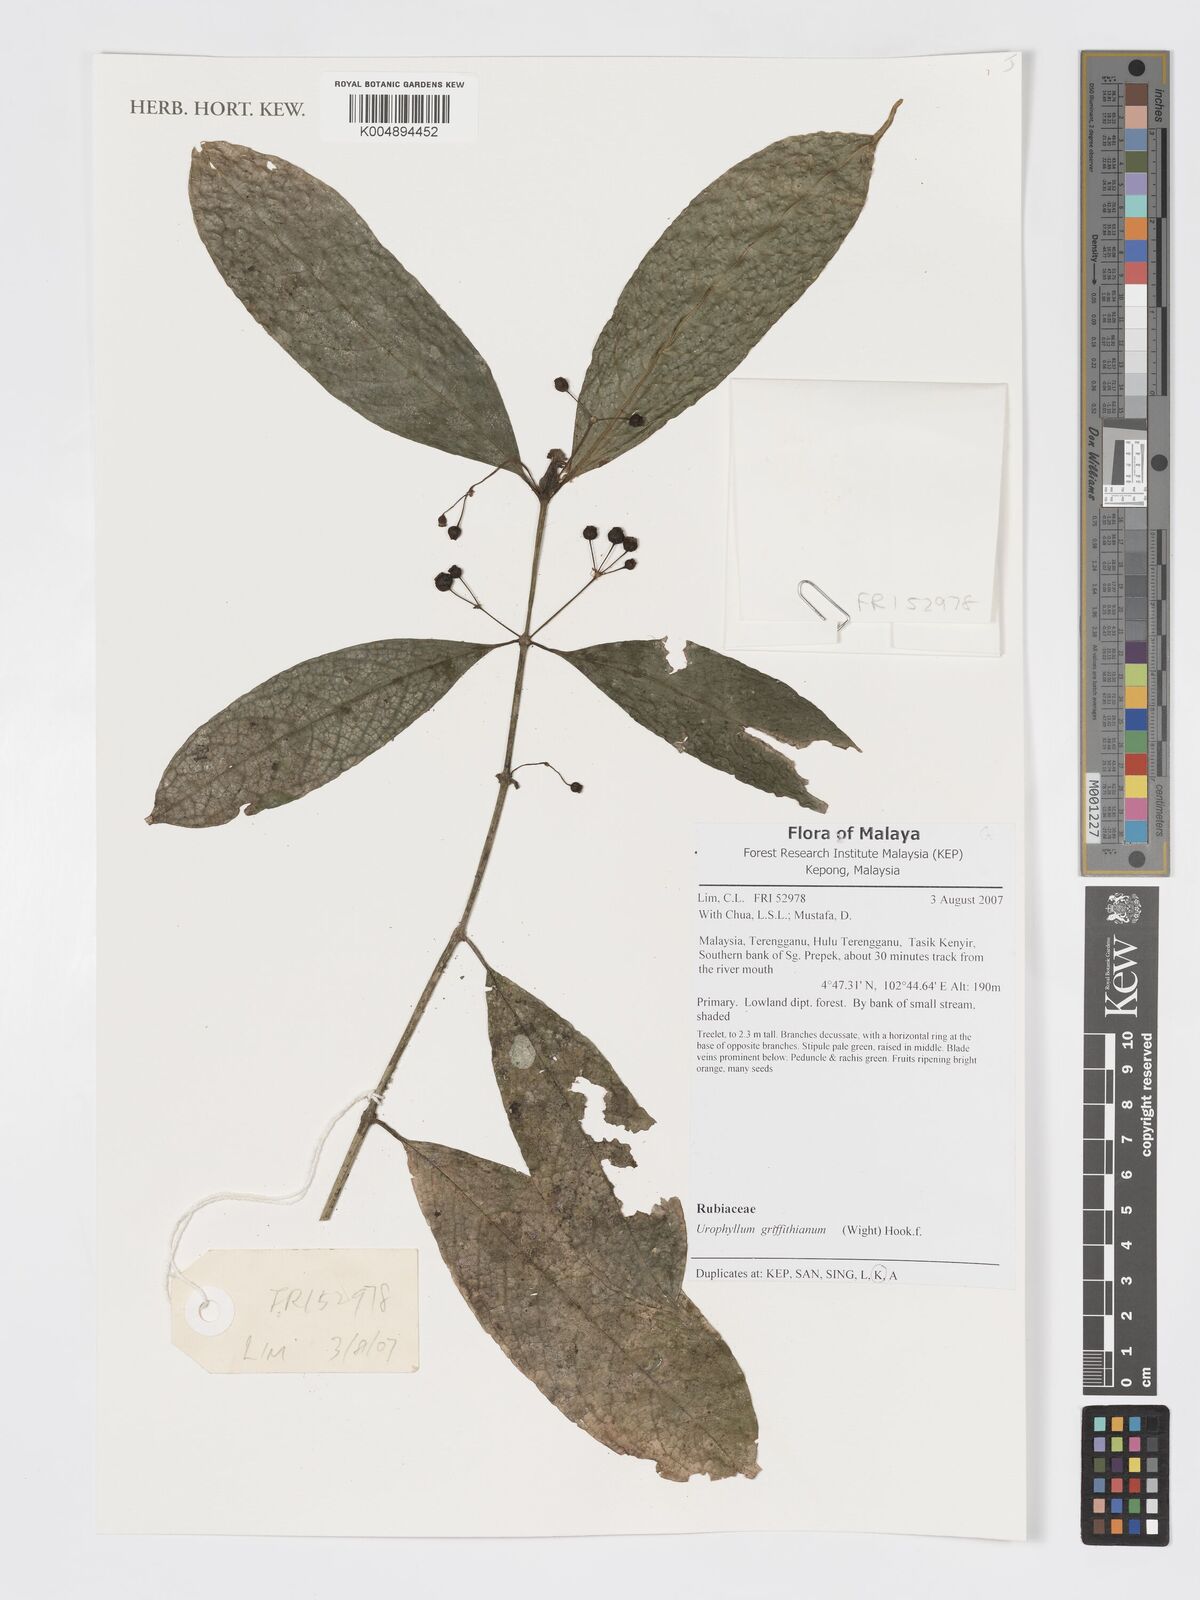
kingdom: Plantae
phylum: Tracheophyta
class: Magnoliopsida
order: Gentianales
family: Rubiaceae
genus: Urophyllum
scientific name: Urophyllum griffithianum
